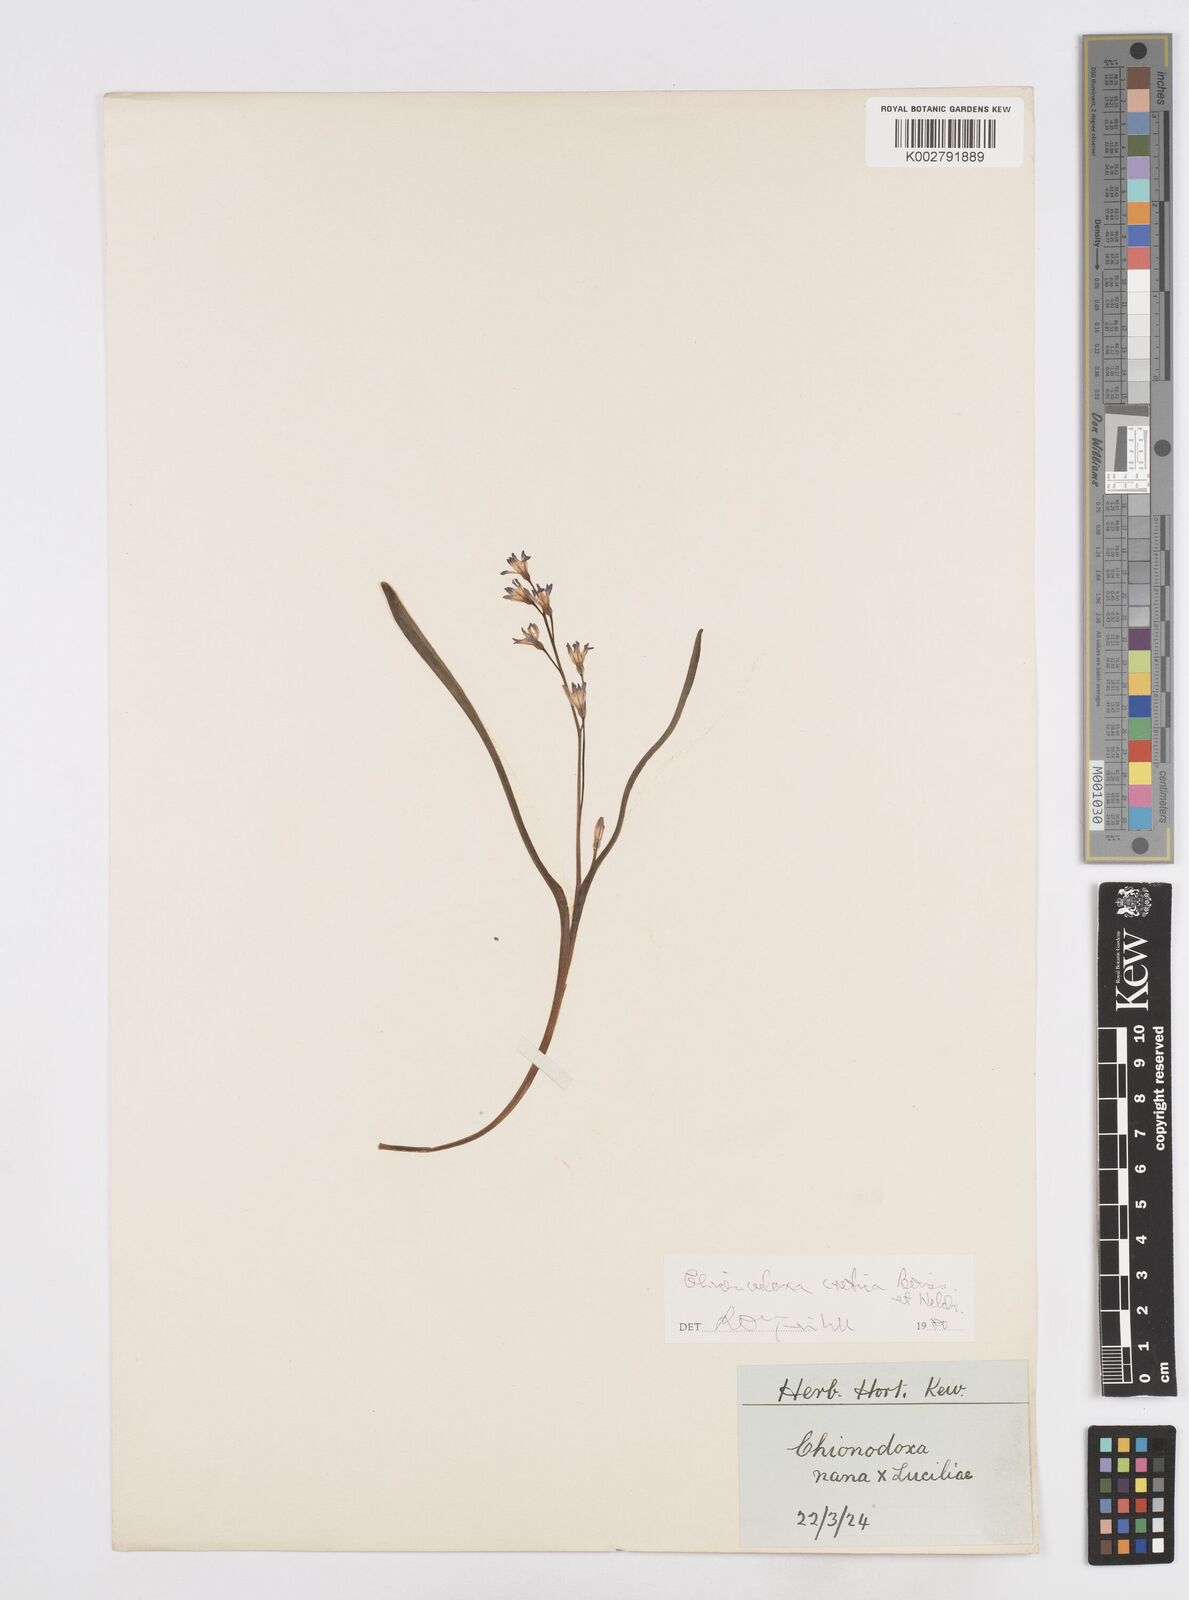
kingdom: Plantae
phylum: Tracheophyta
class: Liliopsida
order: Asparagales
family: Asparagaceae
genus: Scilla
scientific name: Scilla cretica
